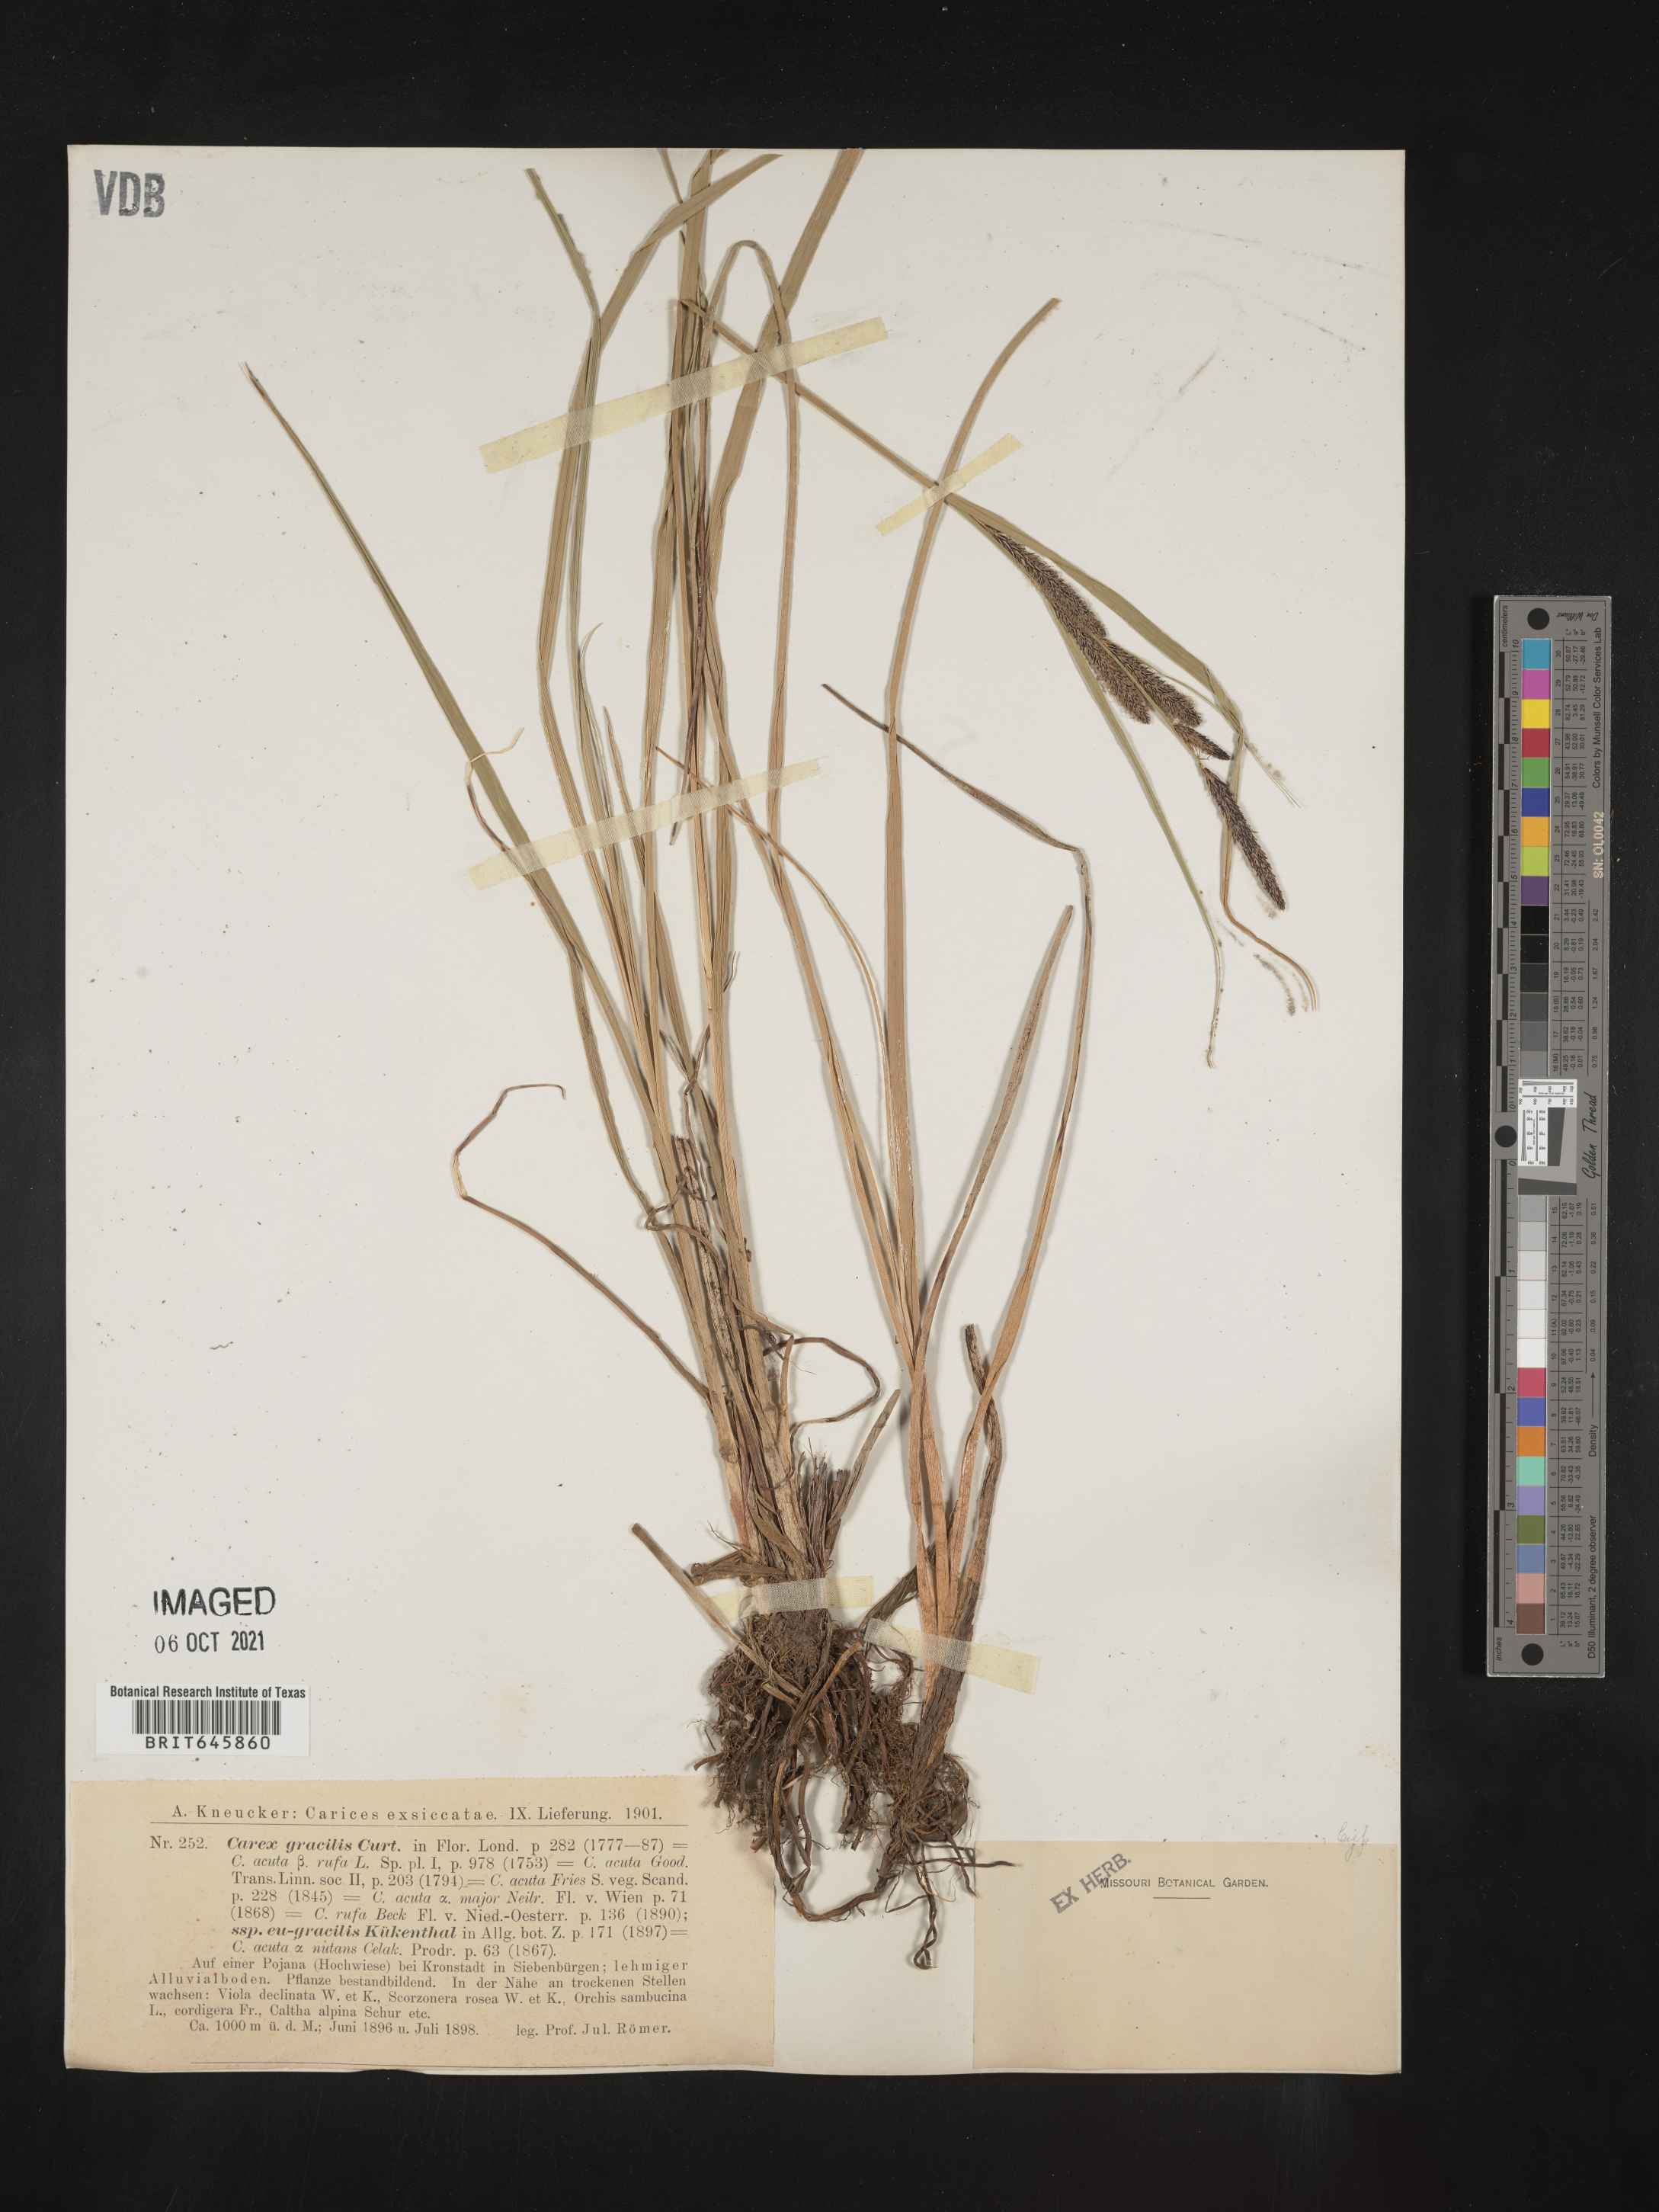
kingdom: Plantae
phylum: Tracheophyta
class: Liliopsida
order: Poales
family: Cyperaceae
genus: Carex
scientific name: Carex
